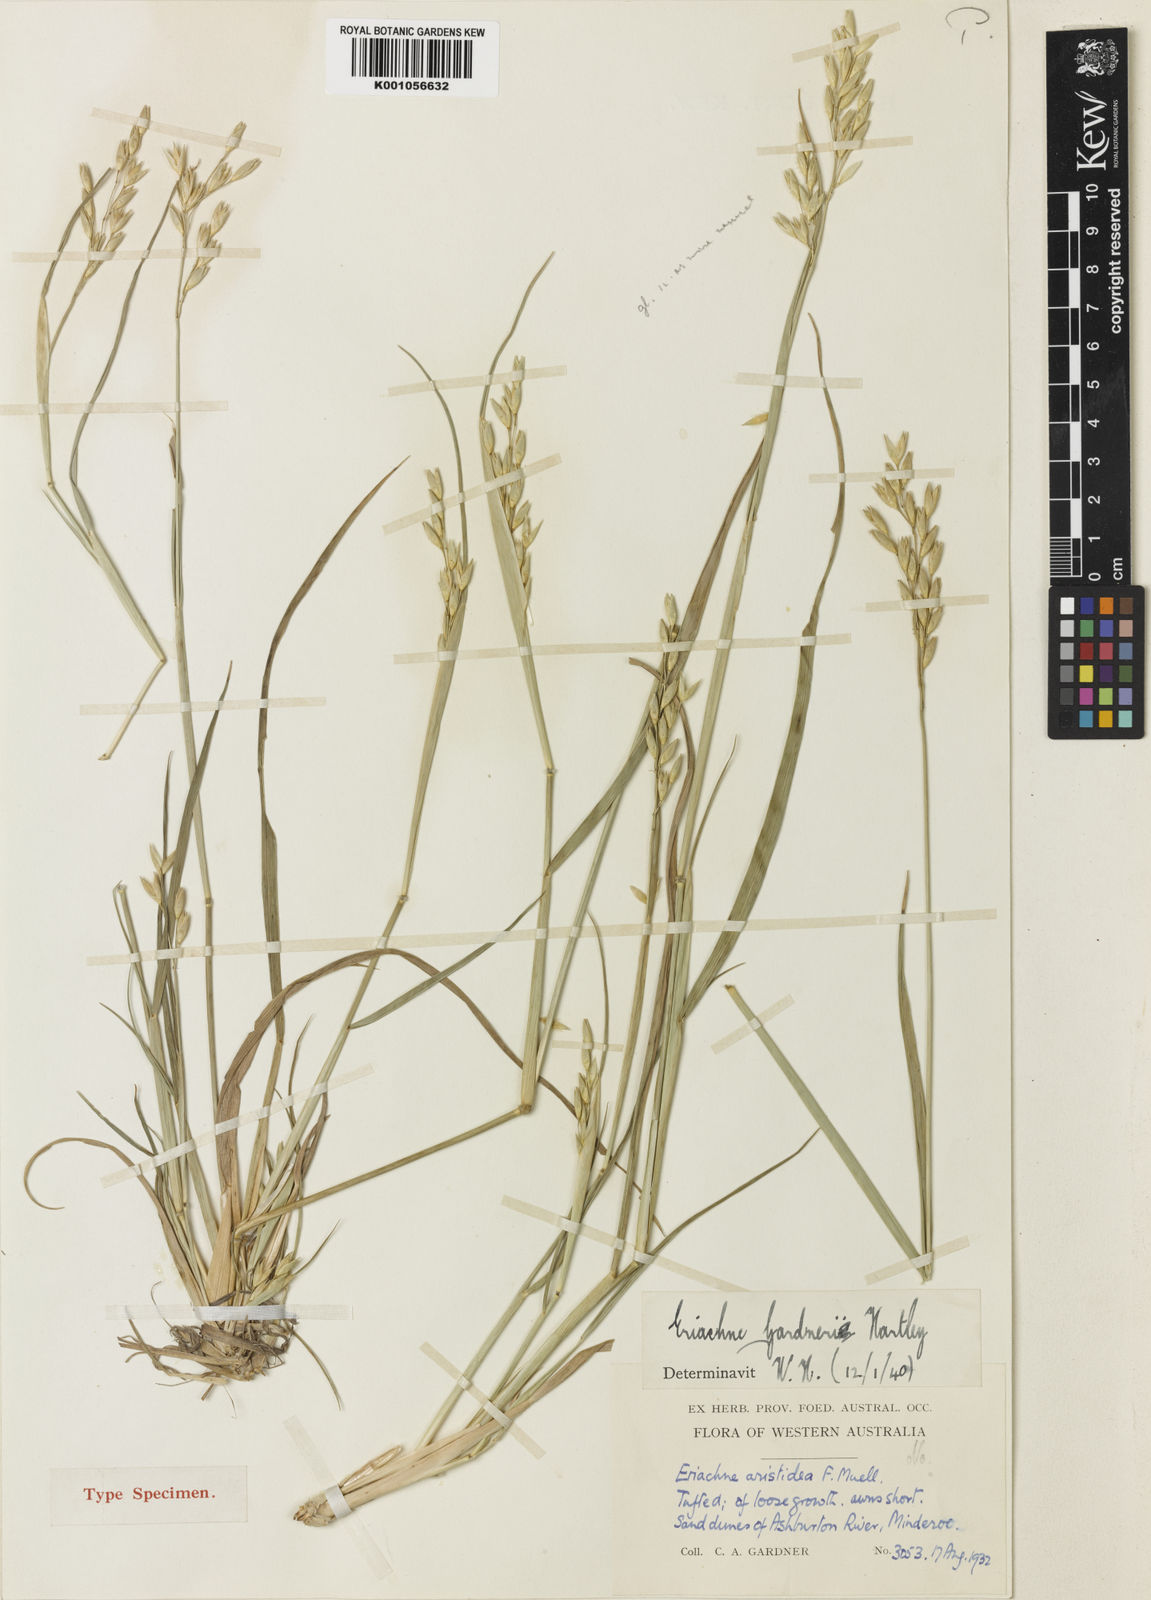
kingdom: Plantae
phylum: Tracheophyta
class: Liliopsida
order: Poales
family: Poaceae
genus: Eriachne
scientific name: Eriachne gardneri
